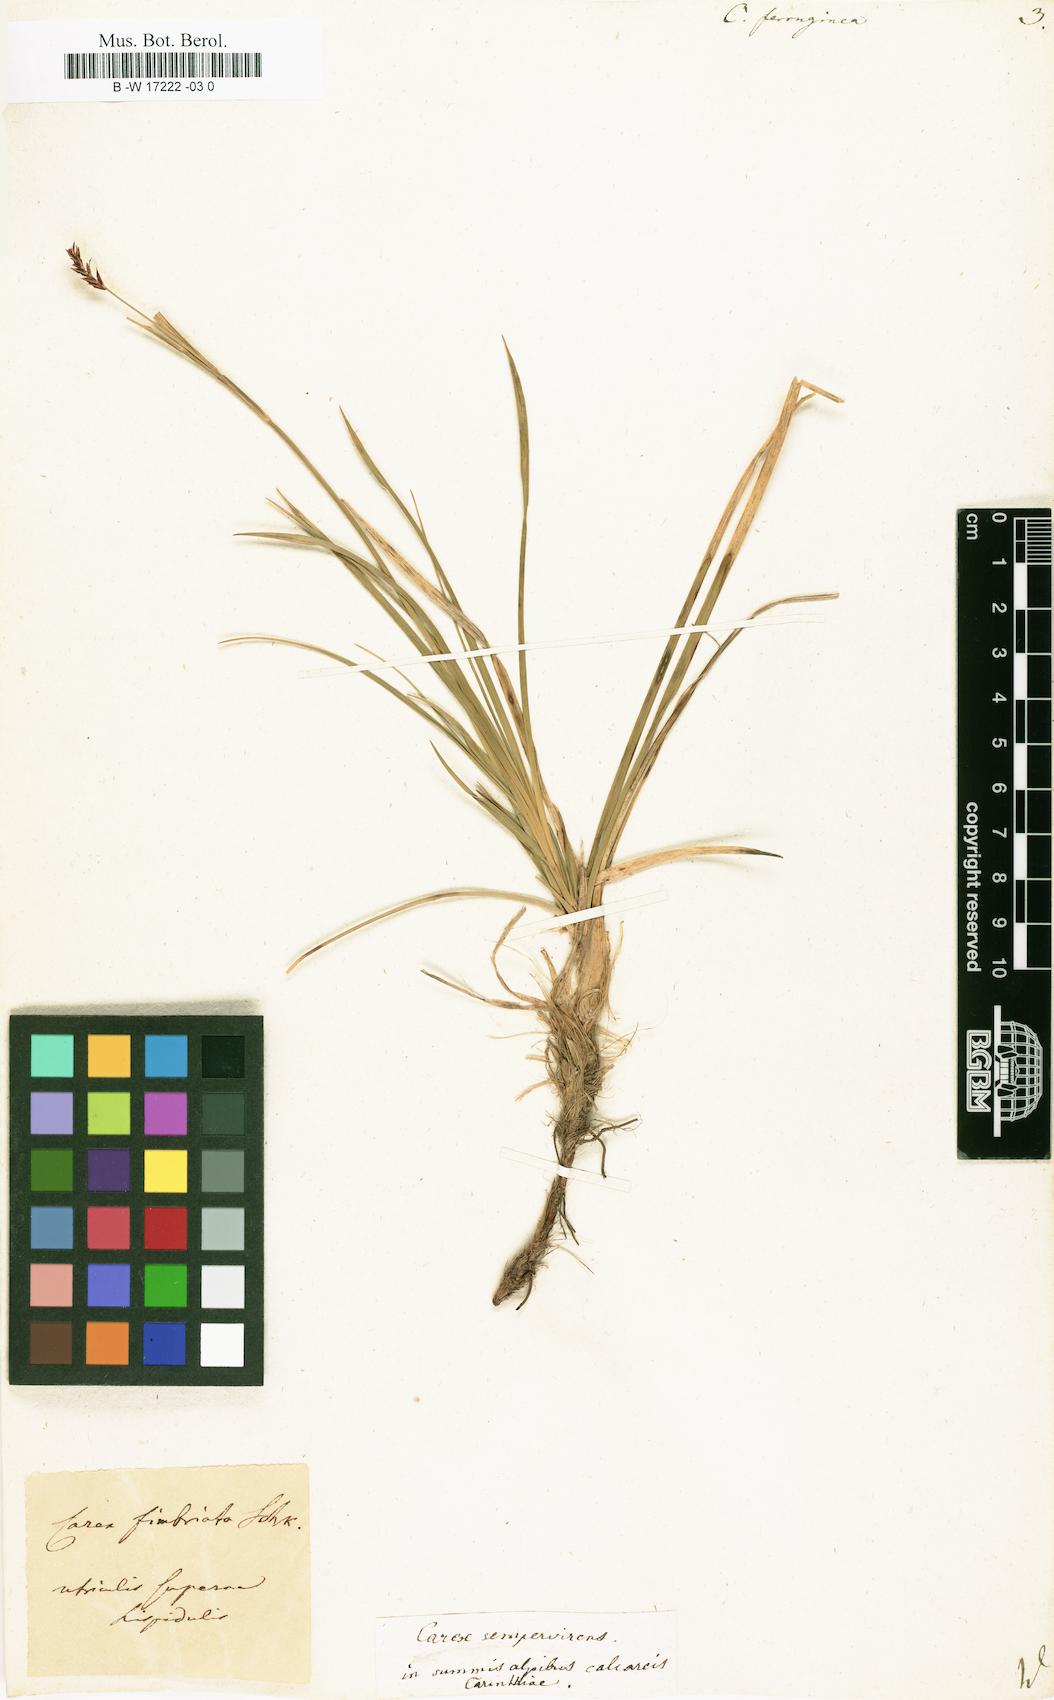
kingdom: Plantae
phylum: Tracheophyta
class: Liliopsida
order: Poales
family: Cyperaceae
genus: Carex
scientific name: Carex ferruginea
